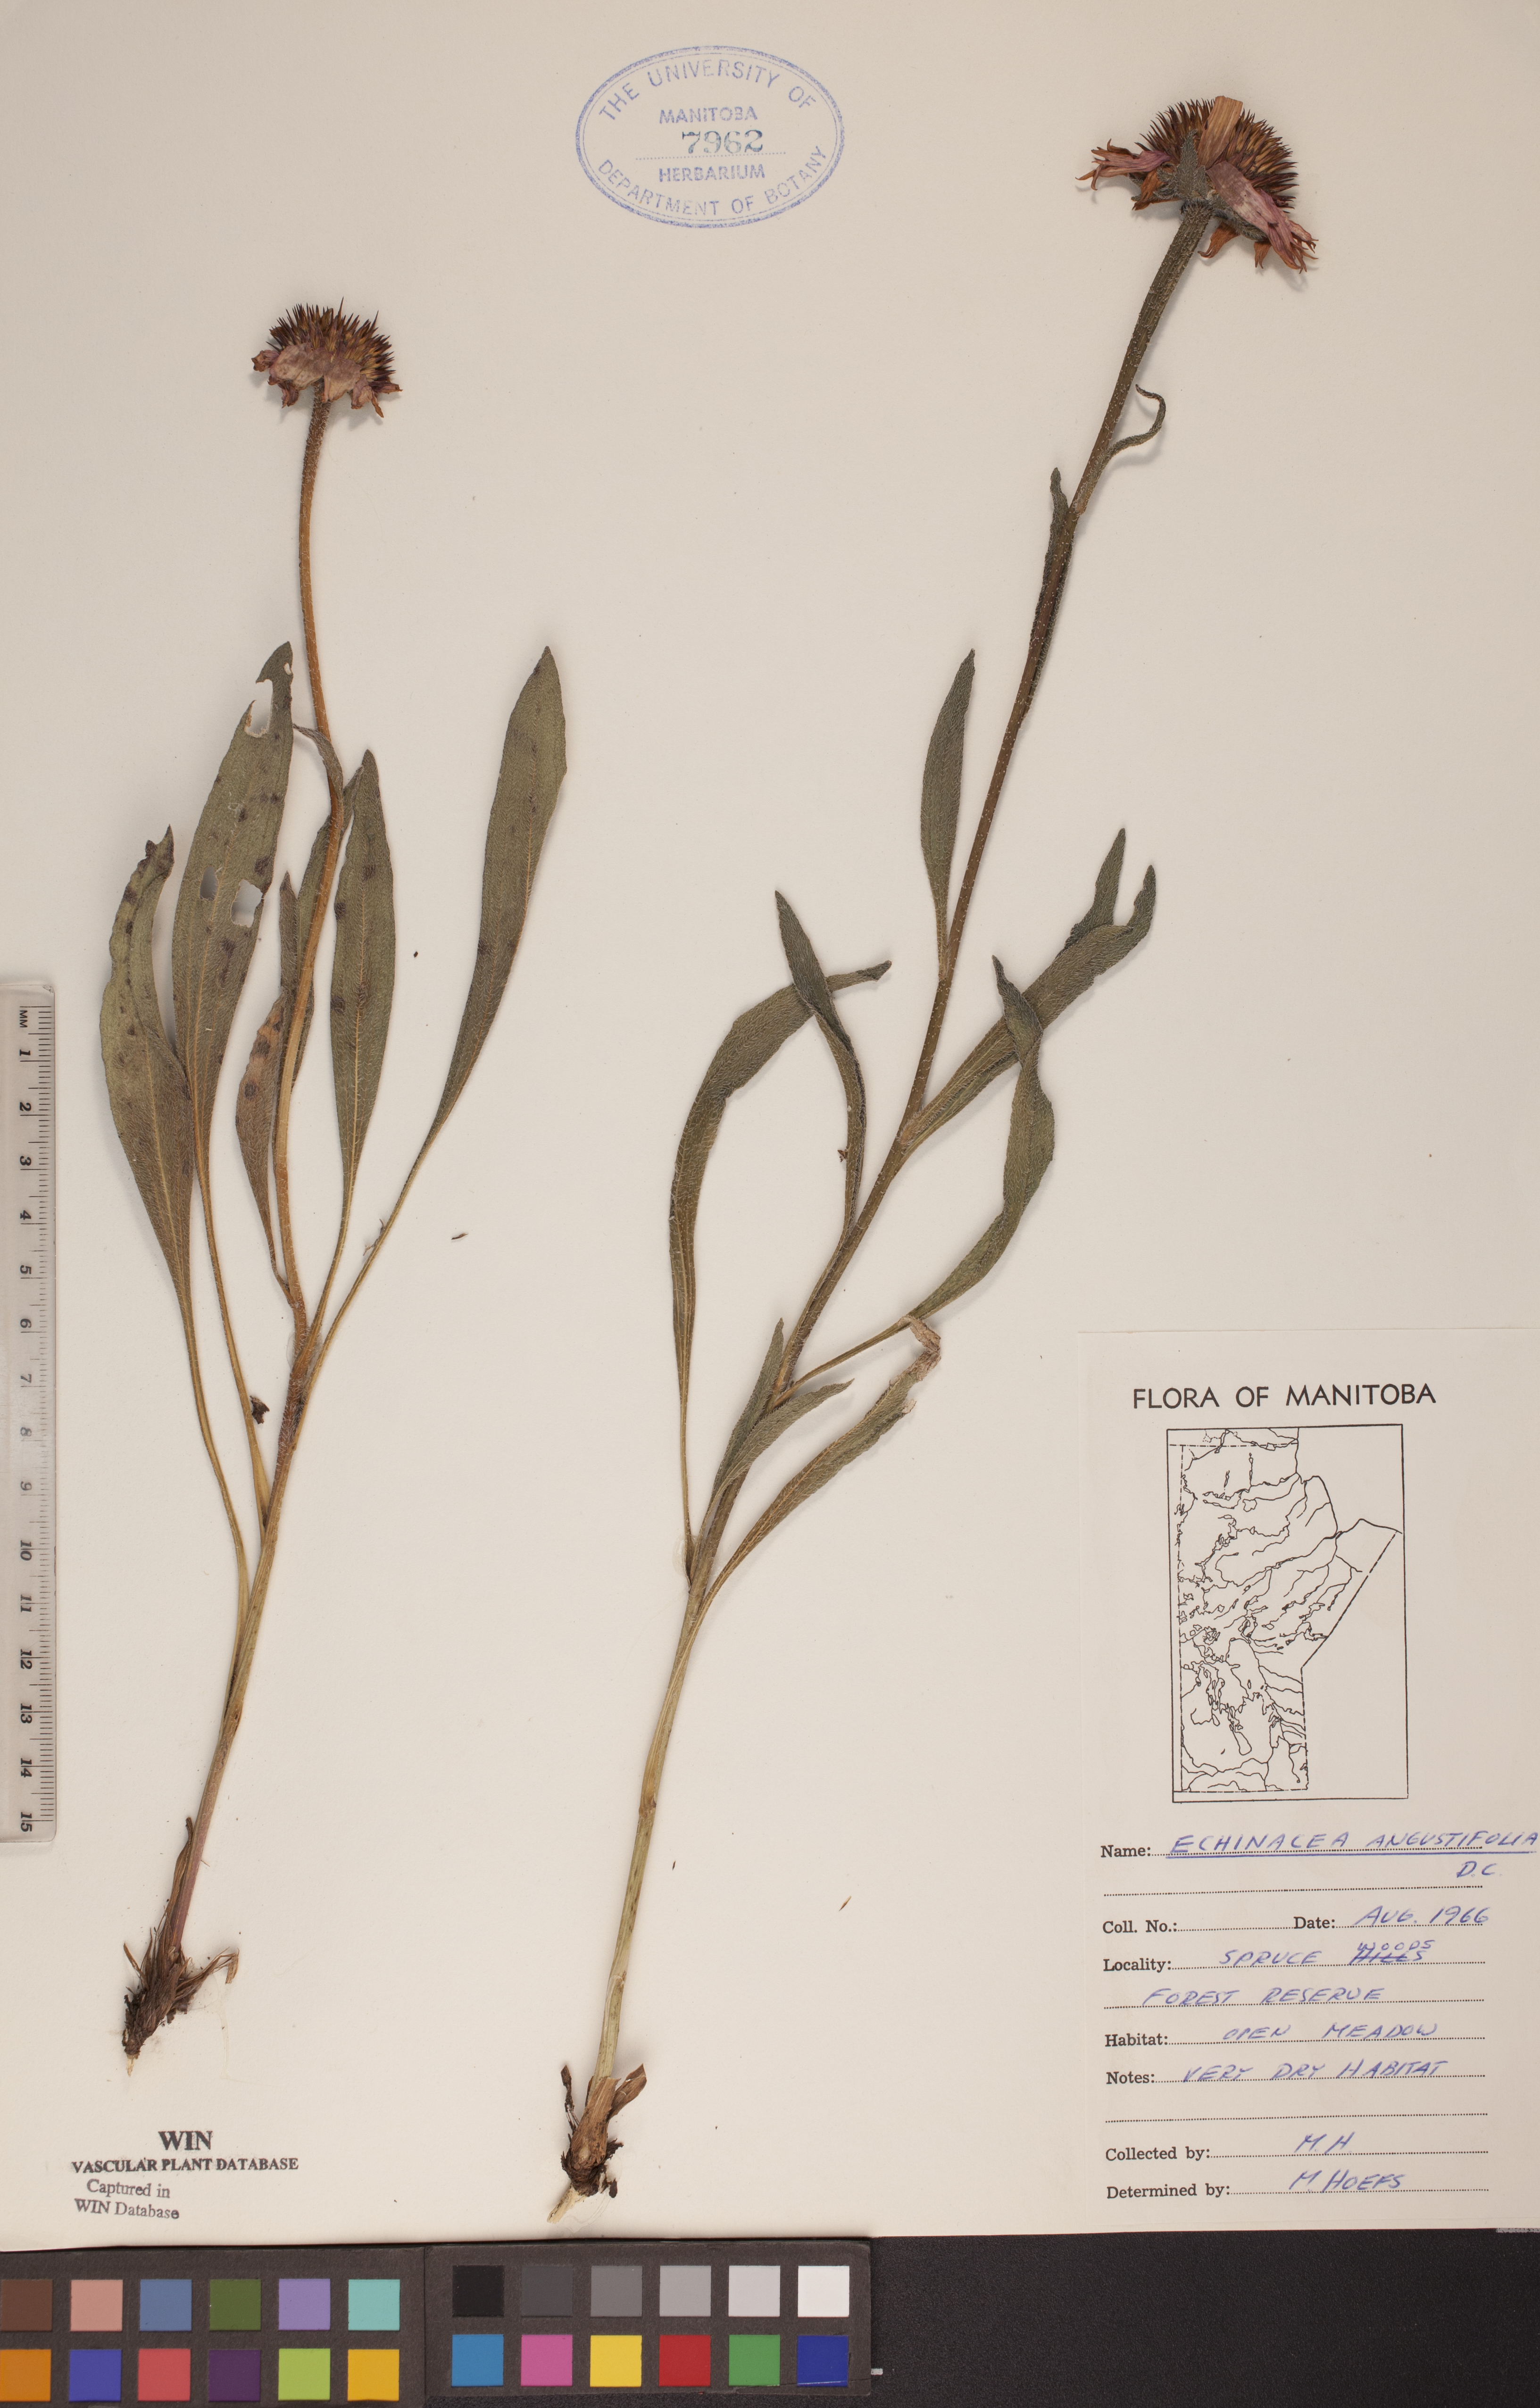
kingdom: Plantae
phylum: Tracheophyta
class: Magnoliopsida
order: Asterales
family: Asteraceae
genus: Echinacea
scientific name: Echinacea angustifolia
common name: Black-sampson echinacea
